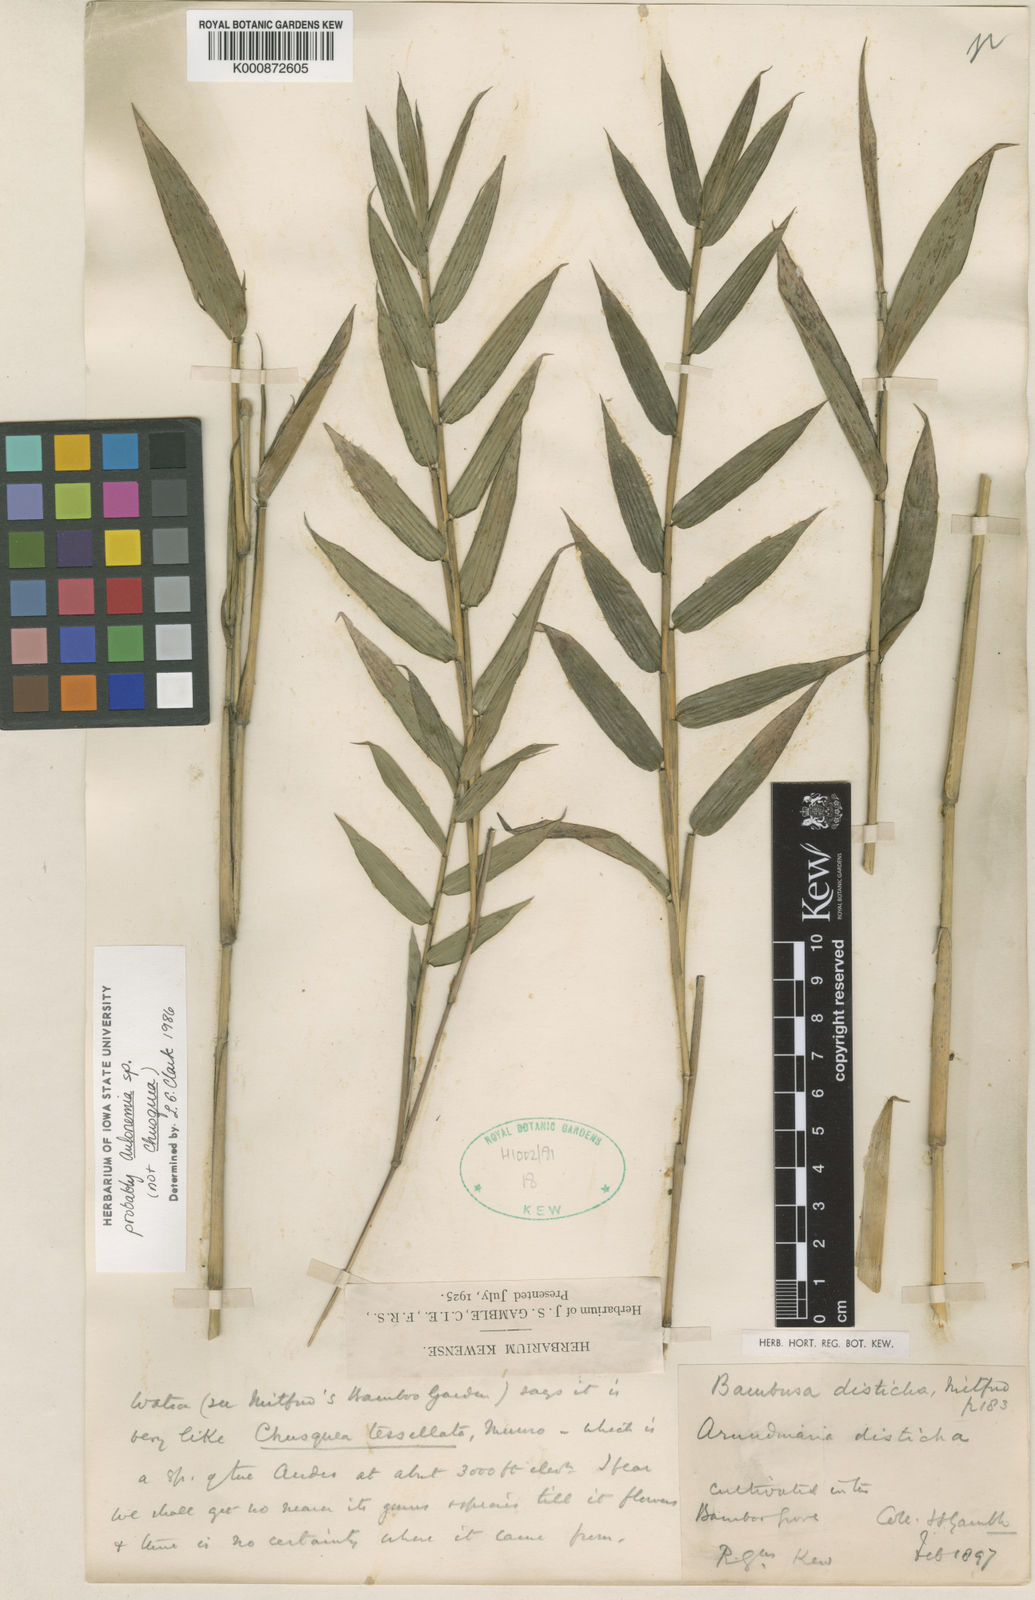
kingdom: Plantae
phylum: Tracheophyta
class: Liliopsida
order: Poales
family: Poaceae
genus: Pleioblastus
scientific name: Pleioblastus distichus
